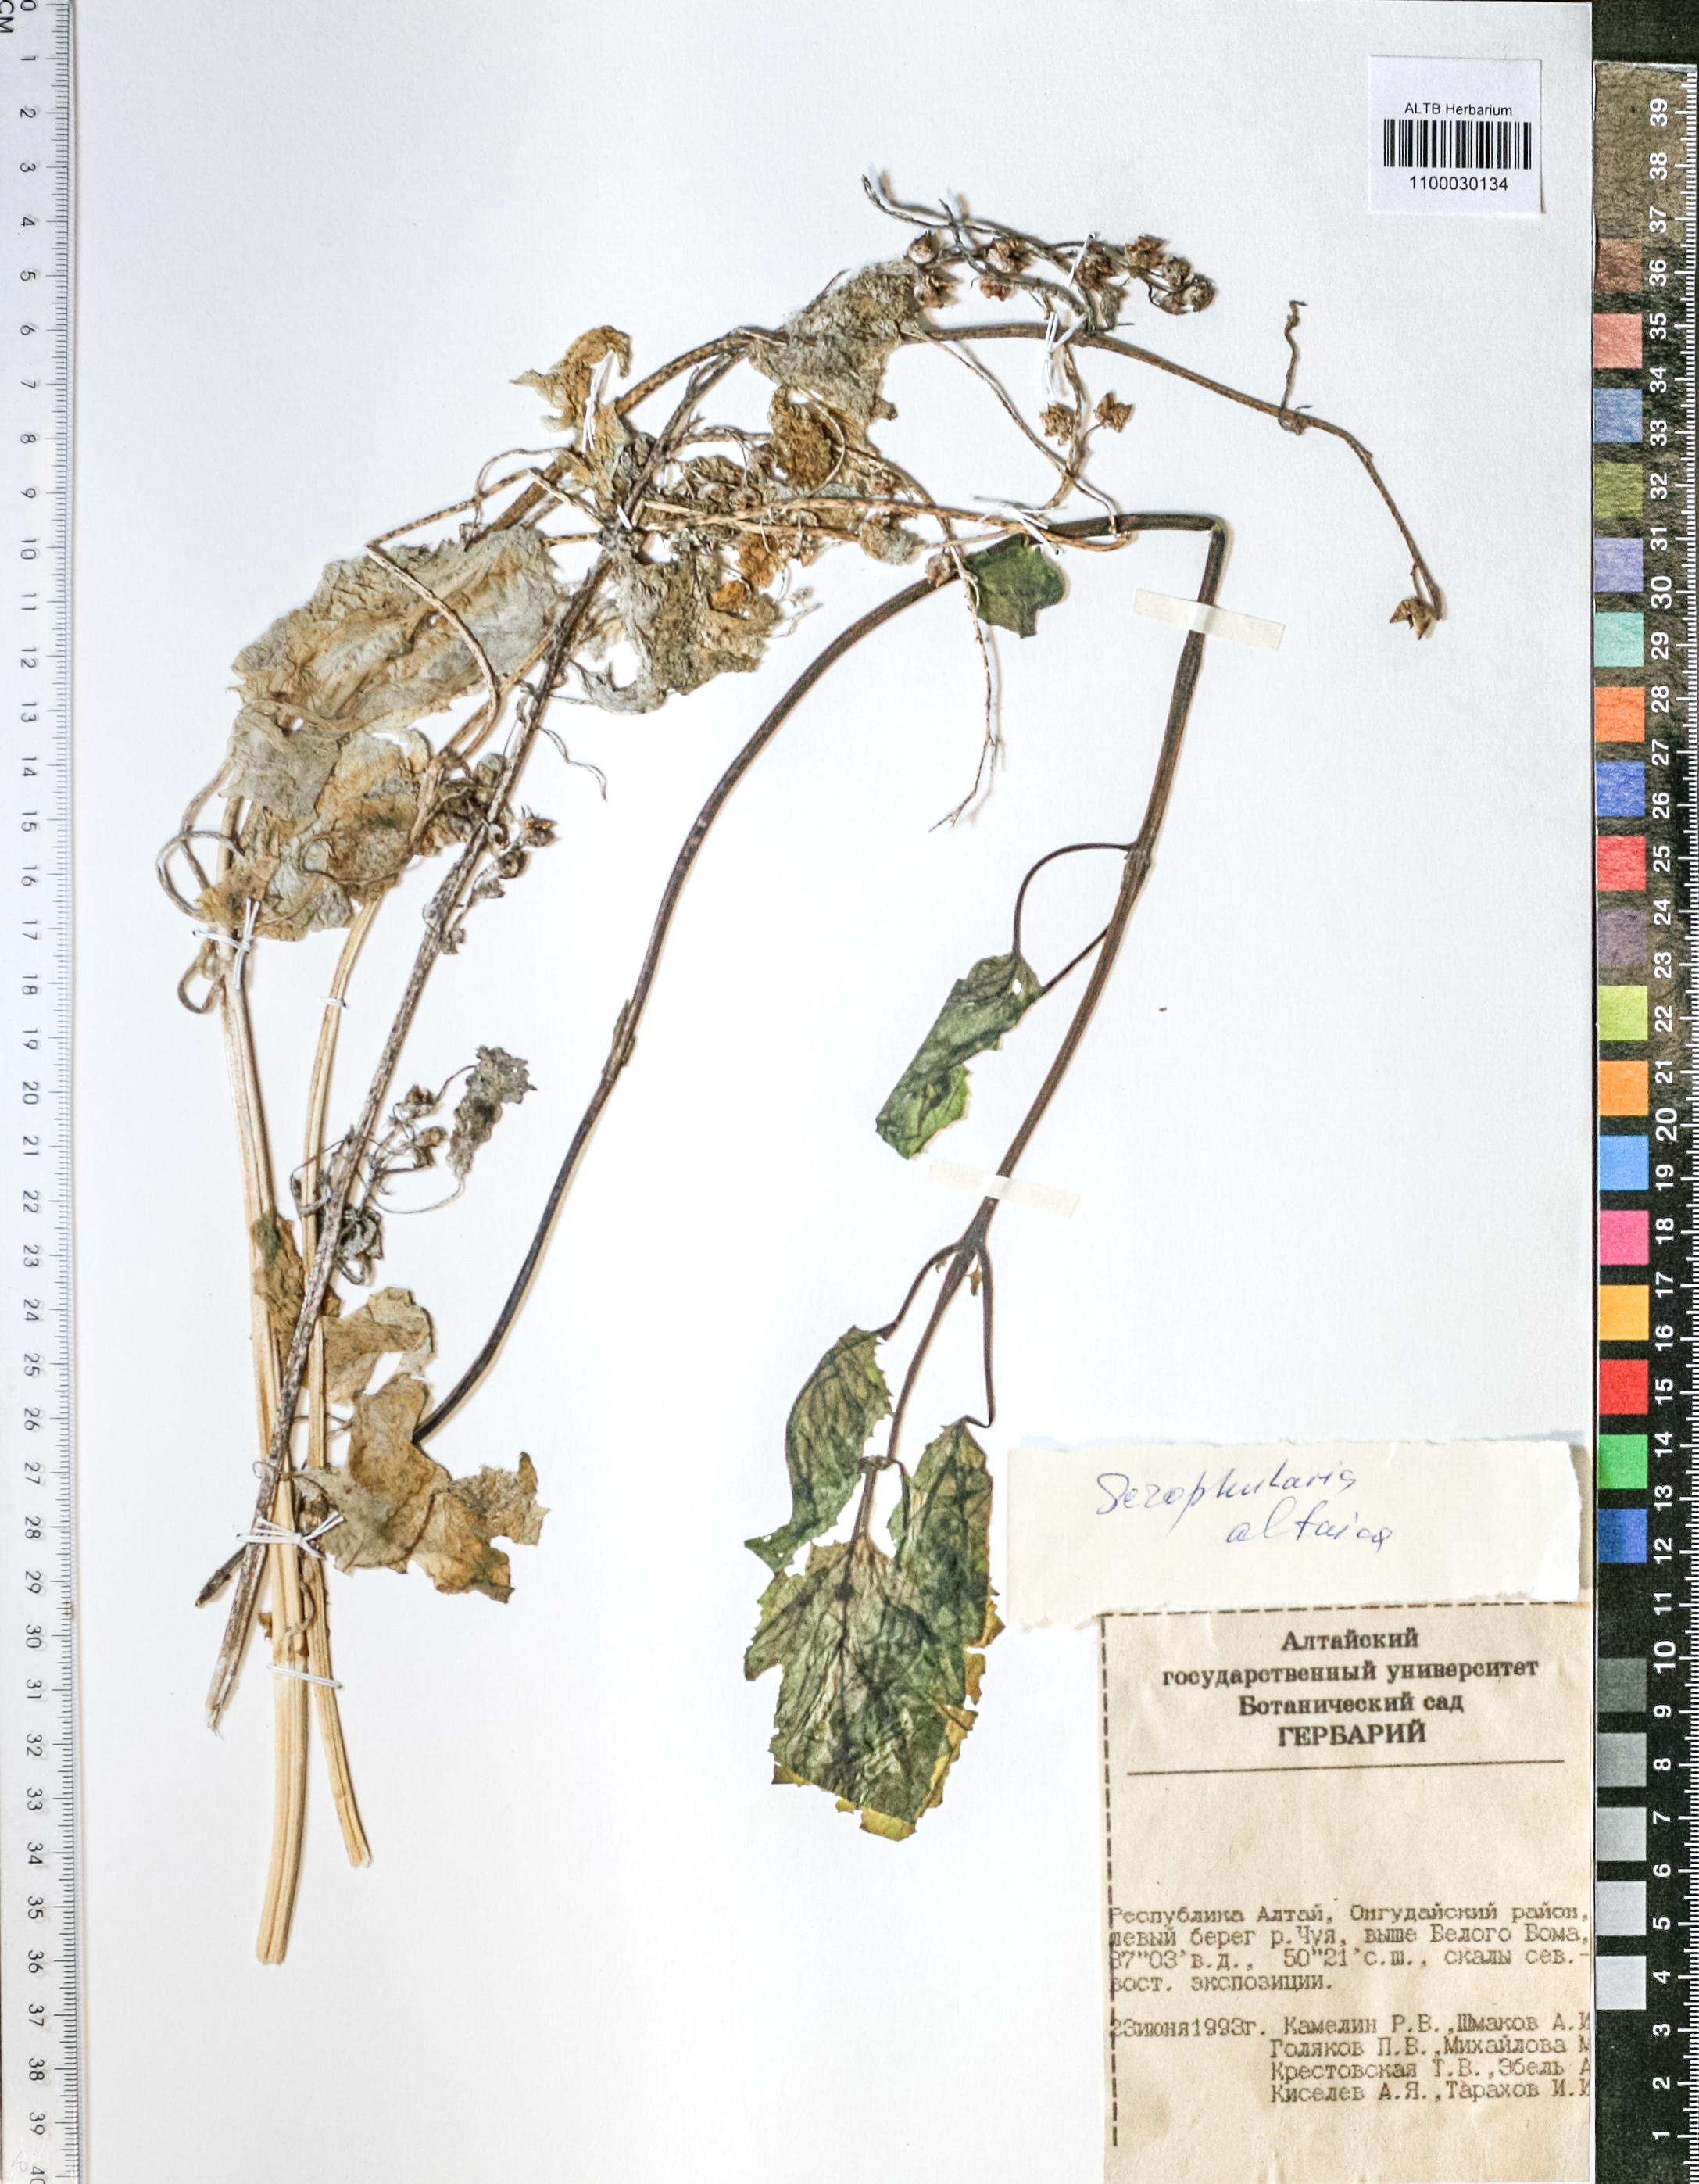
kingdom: Plantae
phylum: Tracheophyta
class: Magnoliopsida
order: Lamiales
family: Scrophulariaceae
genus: Scrophularia
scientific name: Scrophularia altaica
